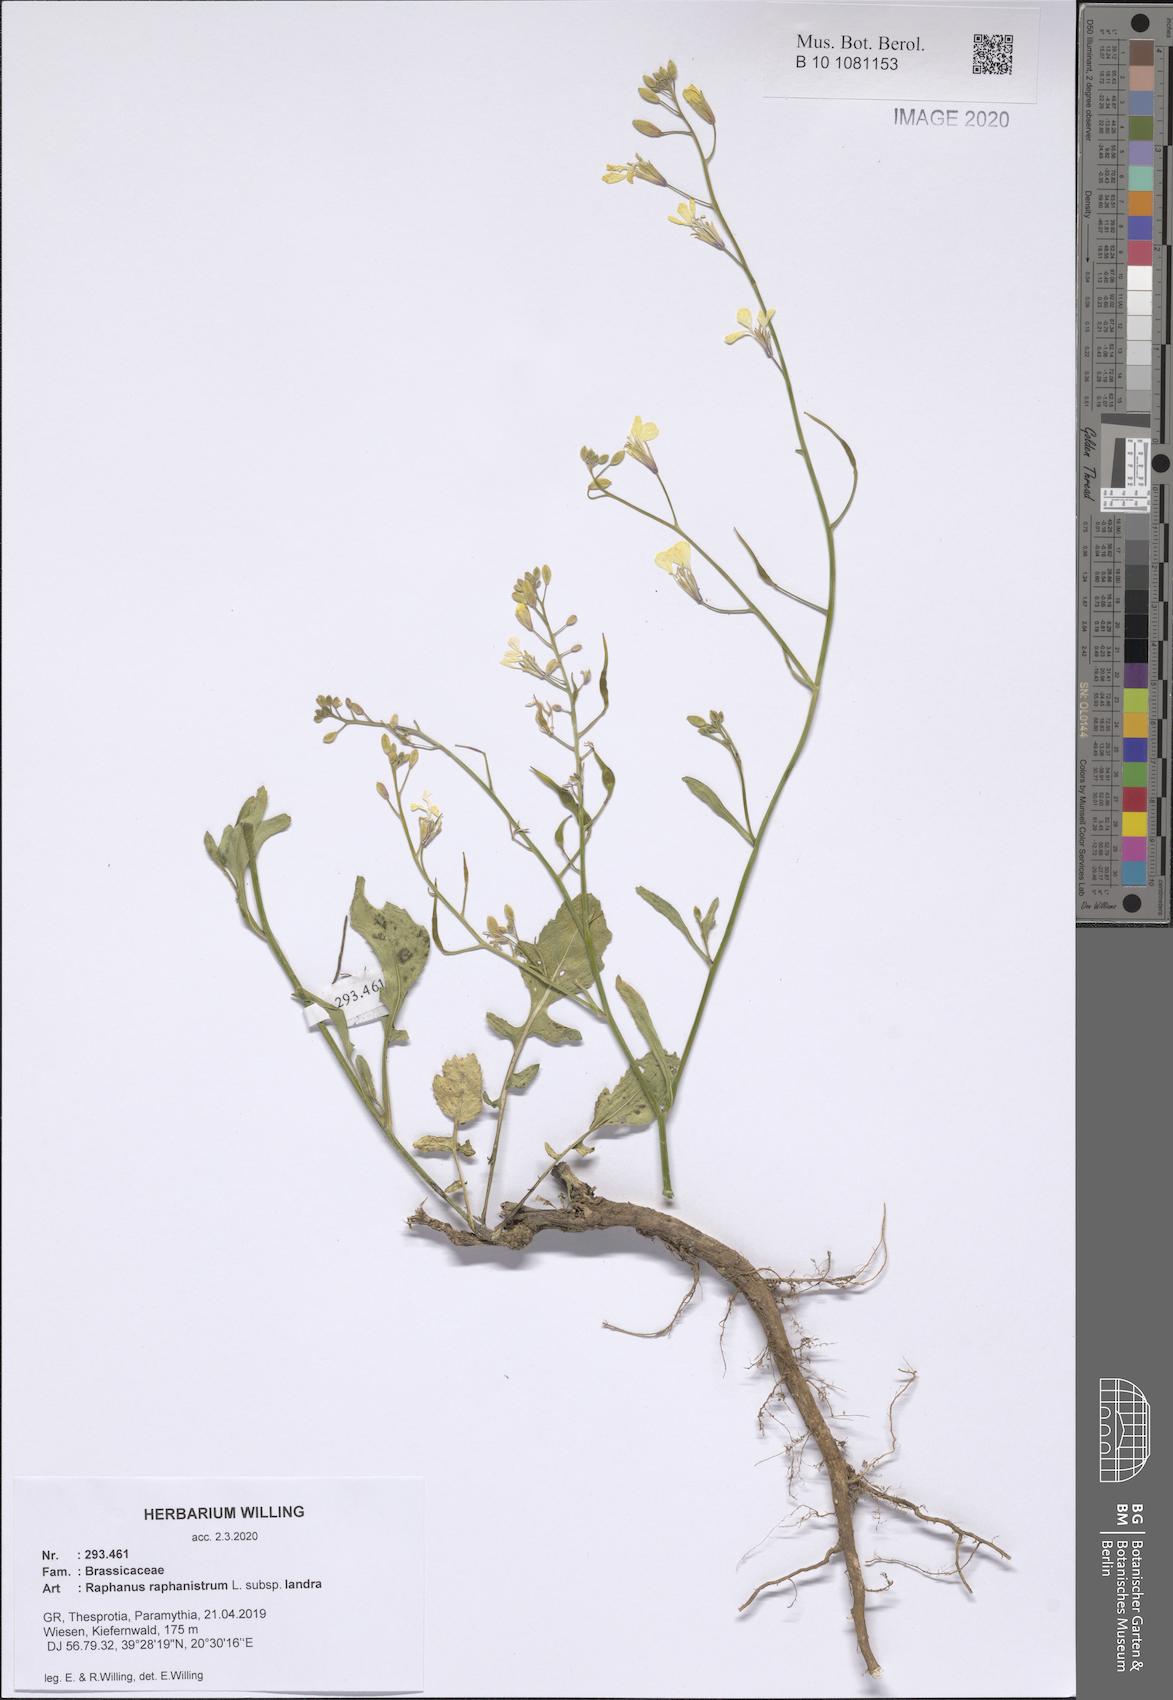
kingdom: Plantae
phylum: Tracheophyta
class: Magnoliopsida
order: Brassicales
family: Brassicaceae
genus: Raphanus
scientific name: Raphanus raphanistrum
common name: Wild radish
